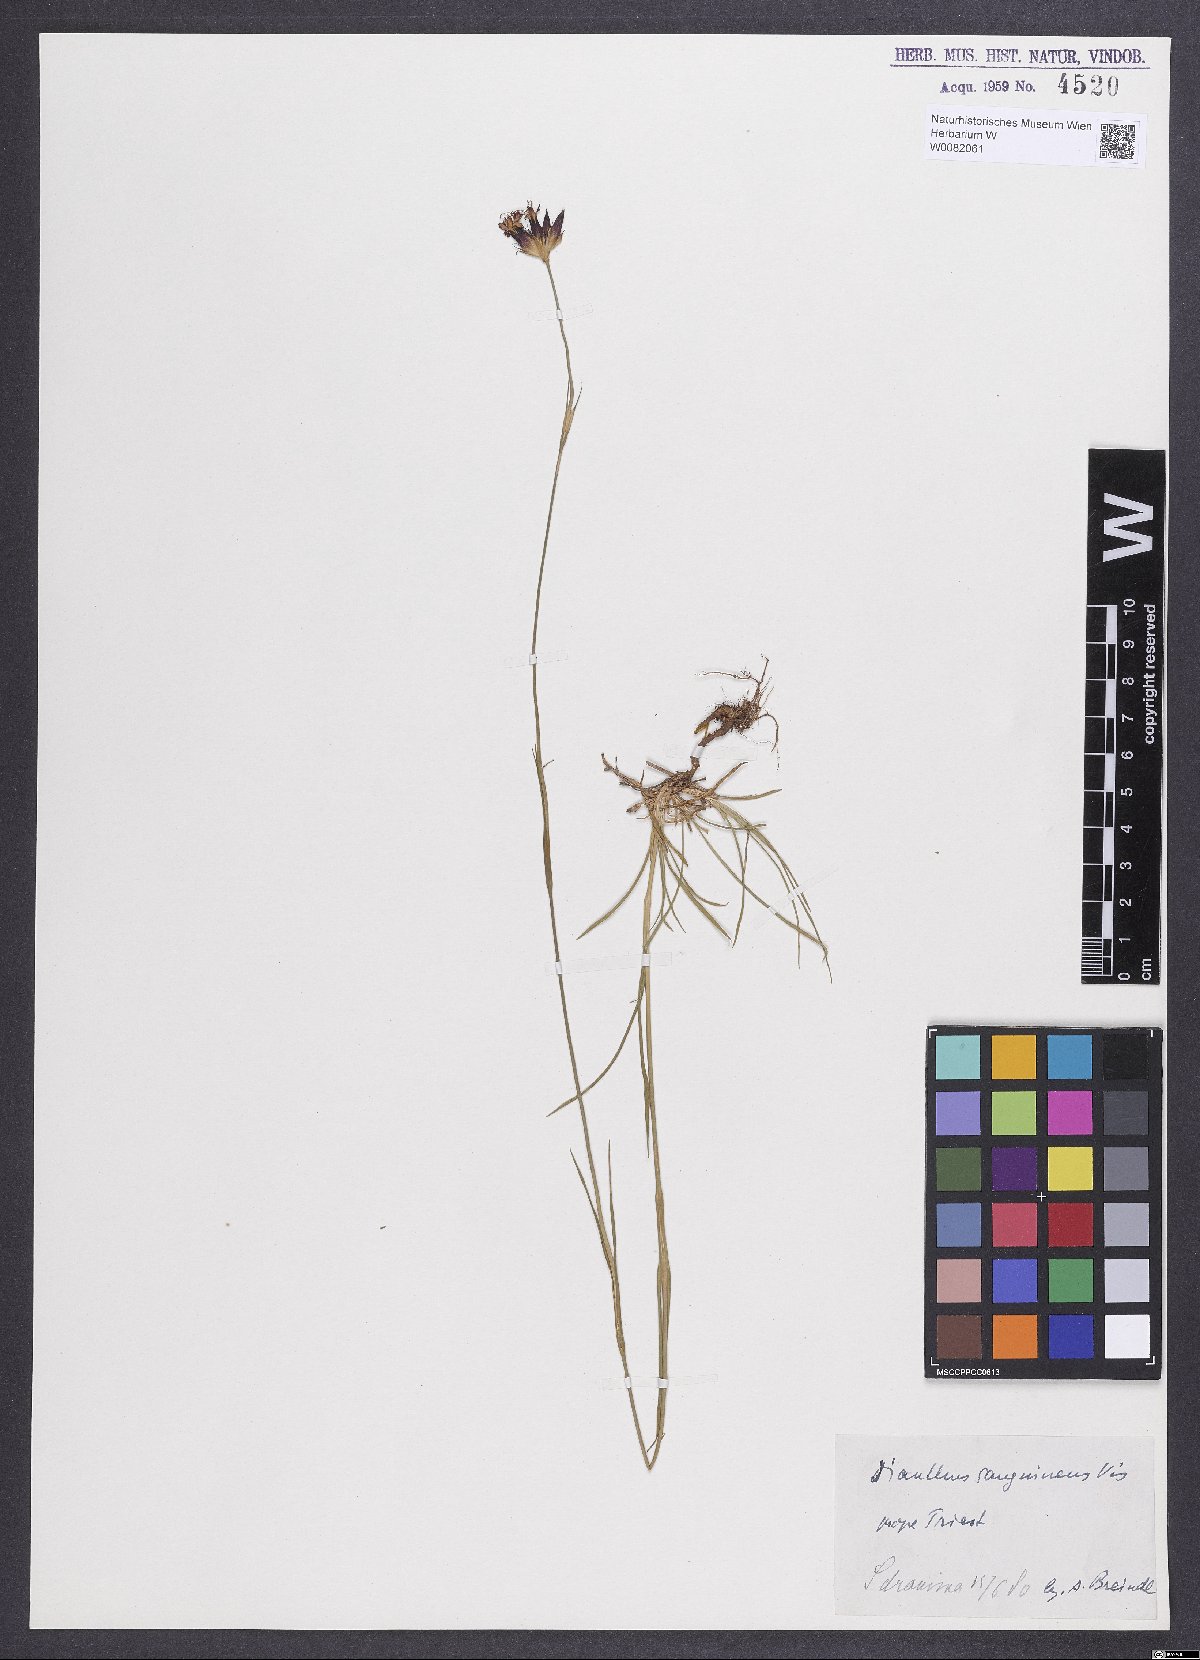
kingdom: Plantae
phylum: Tracheophyta
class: Magnoliopsida
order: Caryophyllales
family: Caryophyllaceae
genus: Dianthus
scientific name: Dianthus carthusianorum
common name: Carthusian pink
